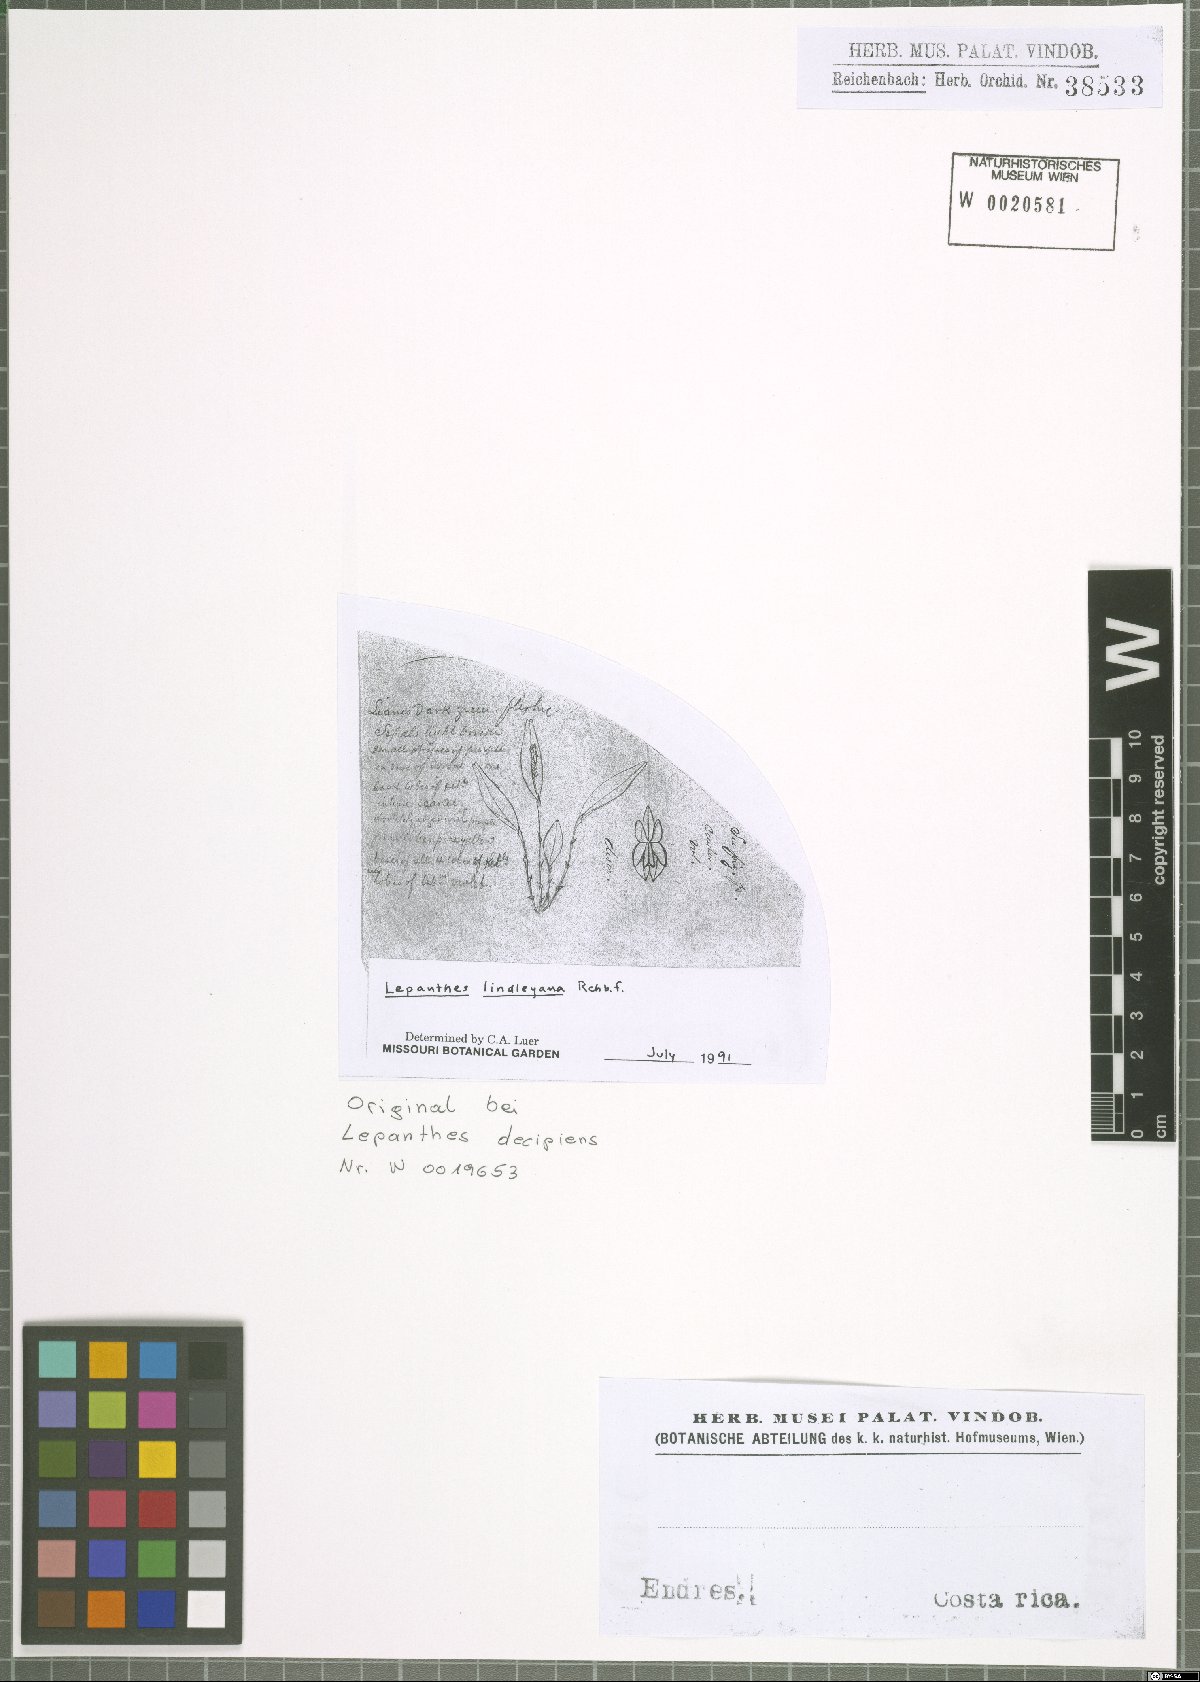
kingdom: Plantae
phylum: Tracheophyta
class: Liliopsida
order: Asparagales
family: Orchidaceae
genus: Lepanthes
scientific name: Lepanthes lindleyana
